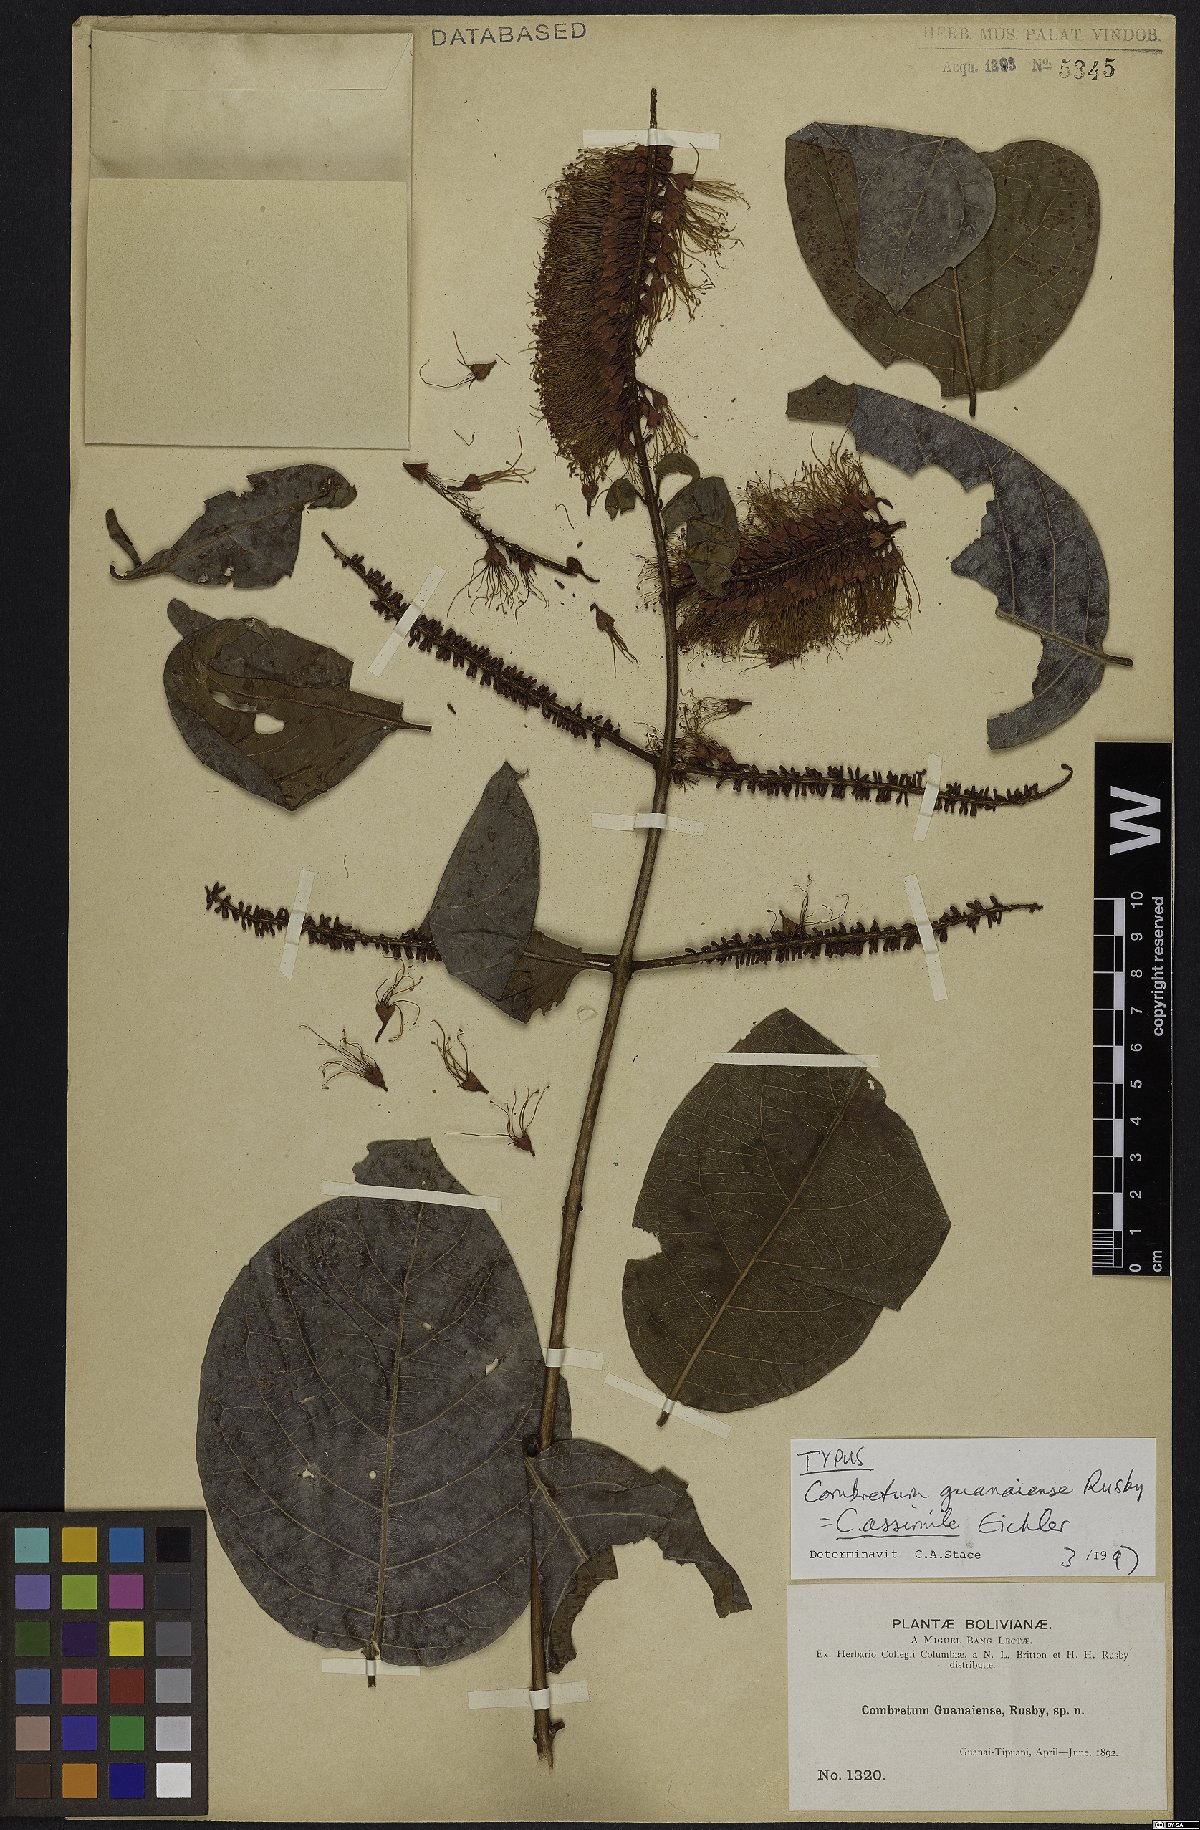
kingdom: Plantae
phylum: Tracheophyta
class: Magnoliopsida
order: Myrtales
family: Combretaceae
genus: Combretum
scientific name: Combretum assimile
